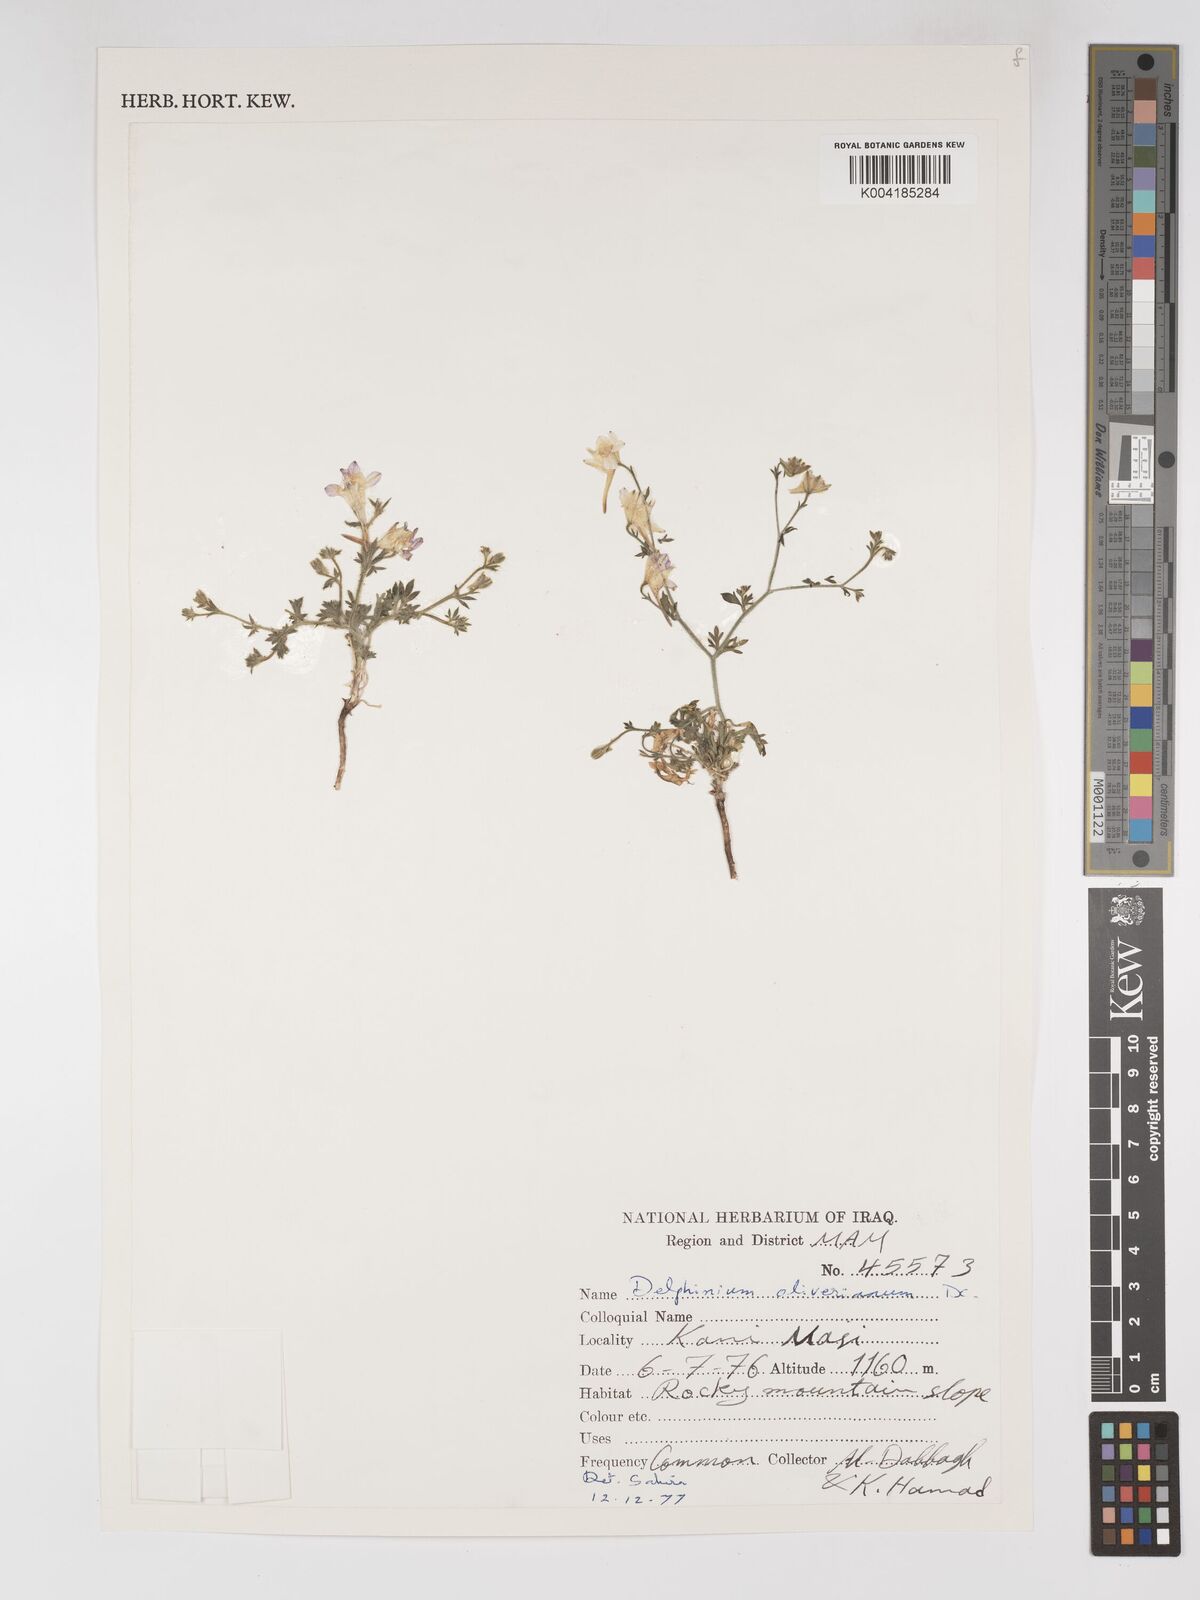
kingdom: Plantae
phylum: Tracheophyta
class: Magnoliopsida
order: Ranunculales
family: Ranunculaceae
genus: Delphinium
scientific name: Delphinium oliverianum
